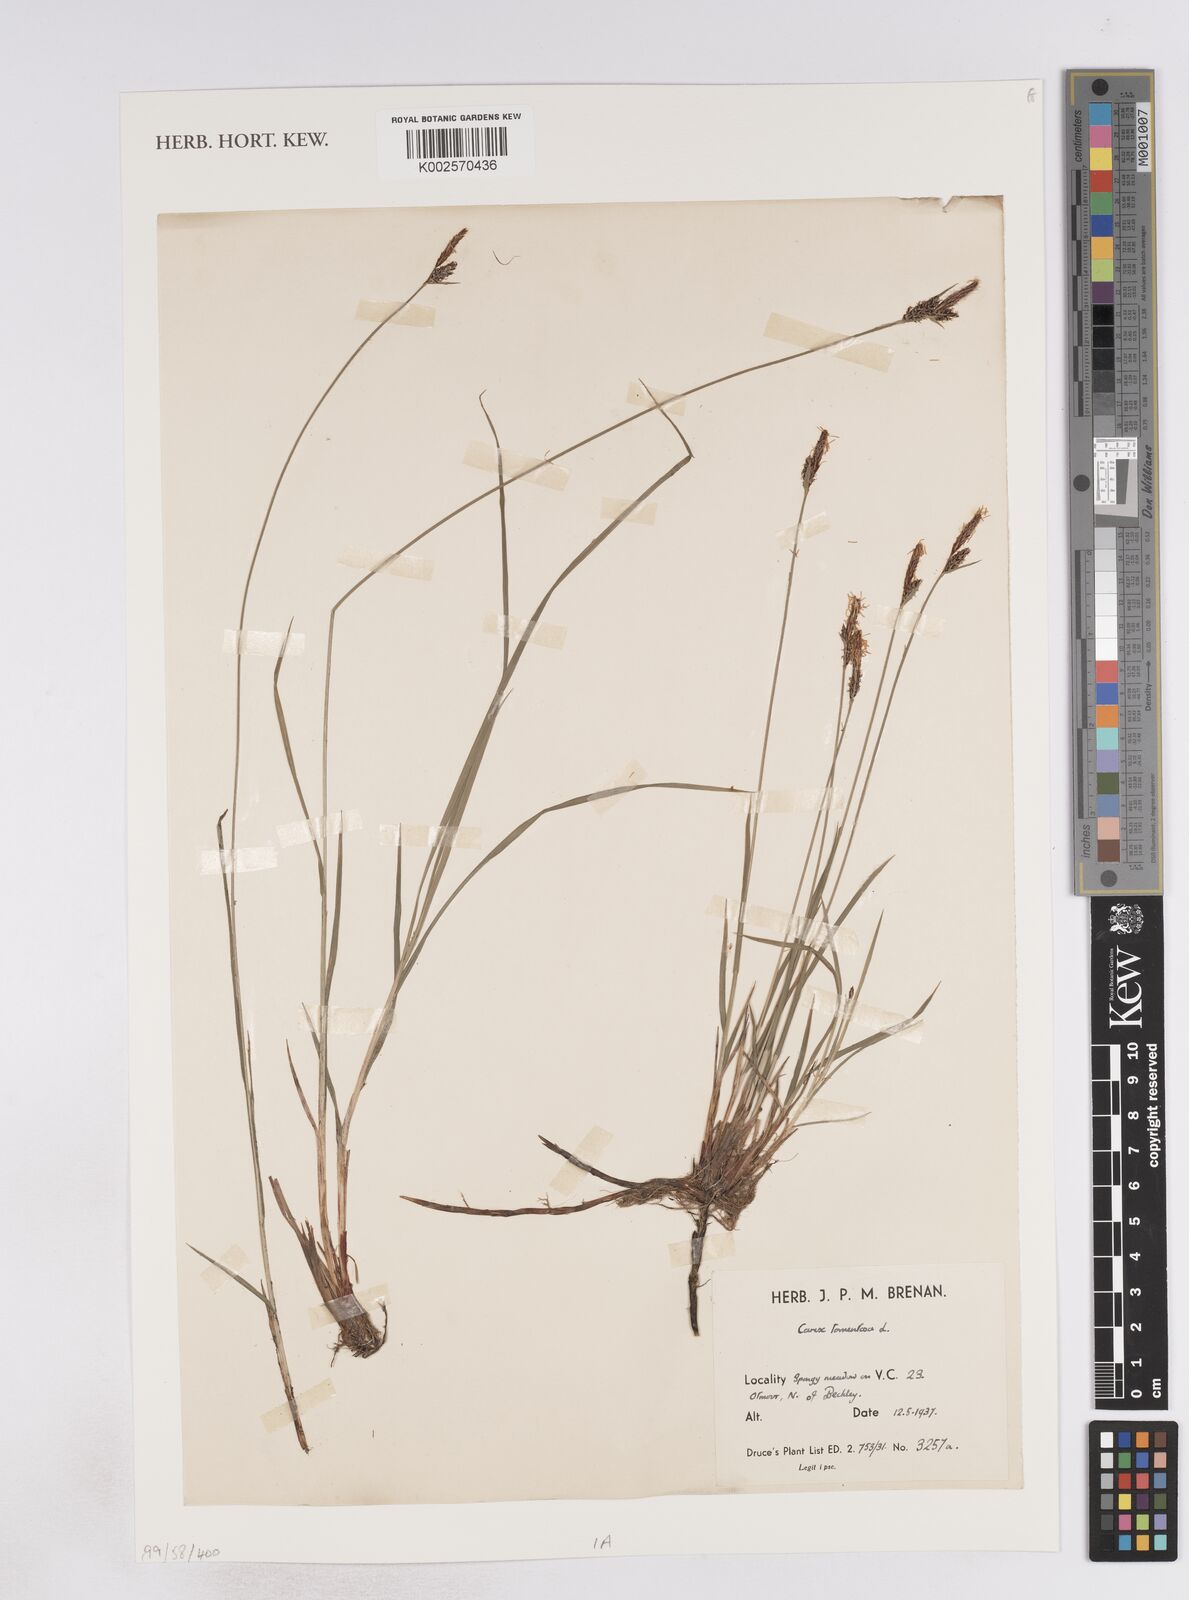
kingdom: Plantae
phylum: Tracheophyta
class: Liliopsida
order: Poales
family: Cyperaceae
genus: Carex
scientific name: Carex montana
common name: Soft-leaved sedge
